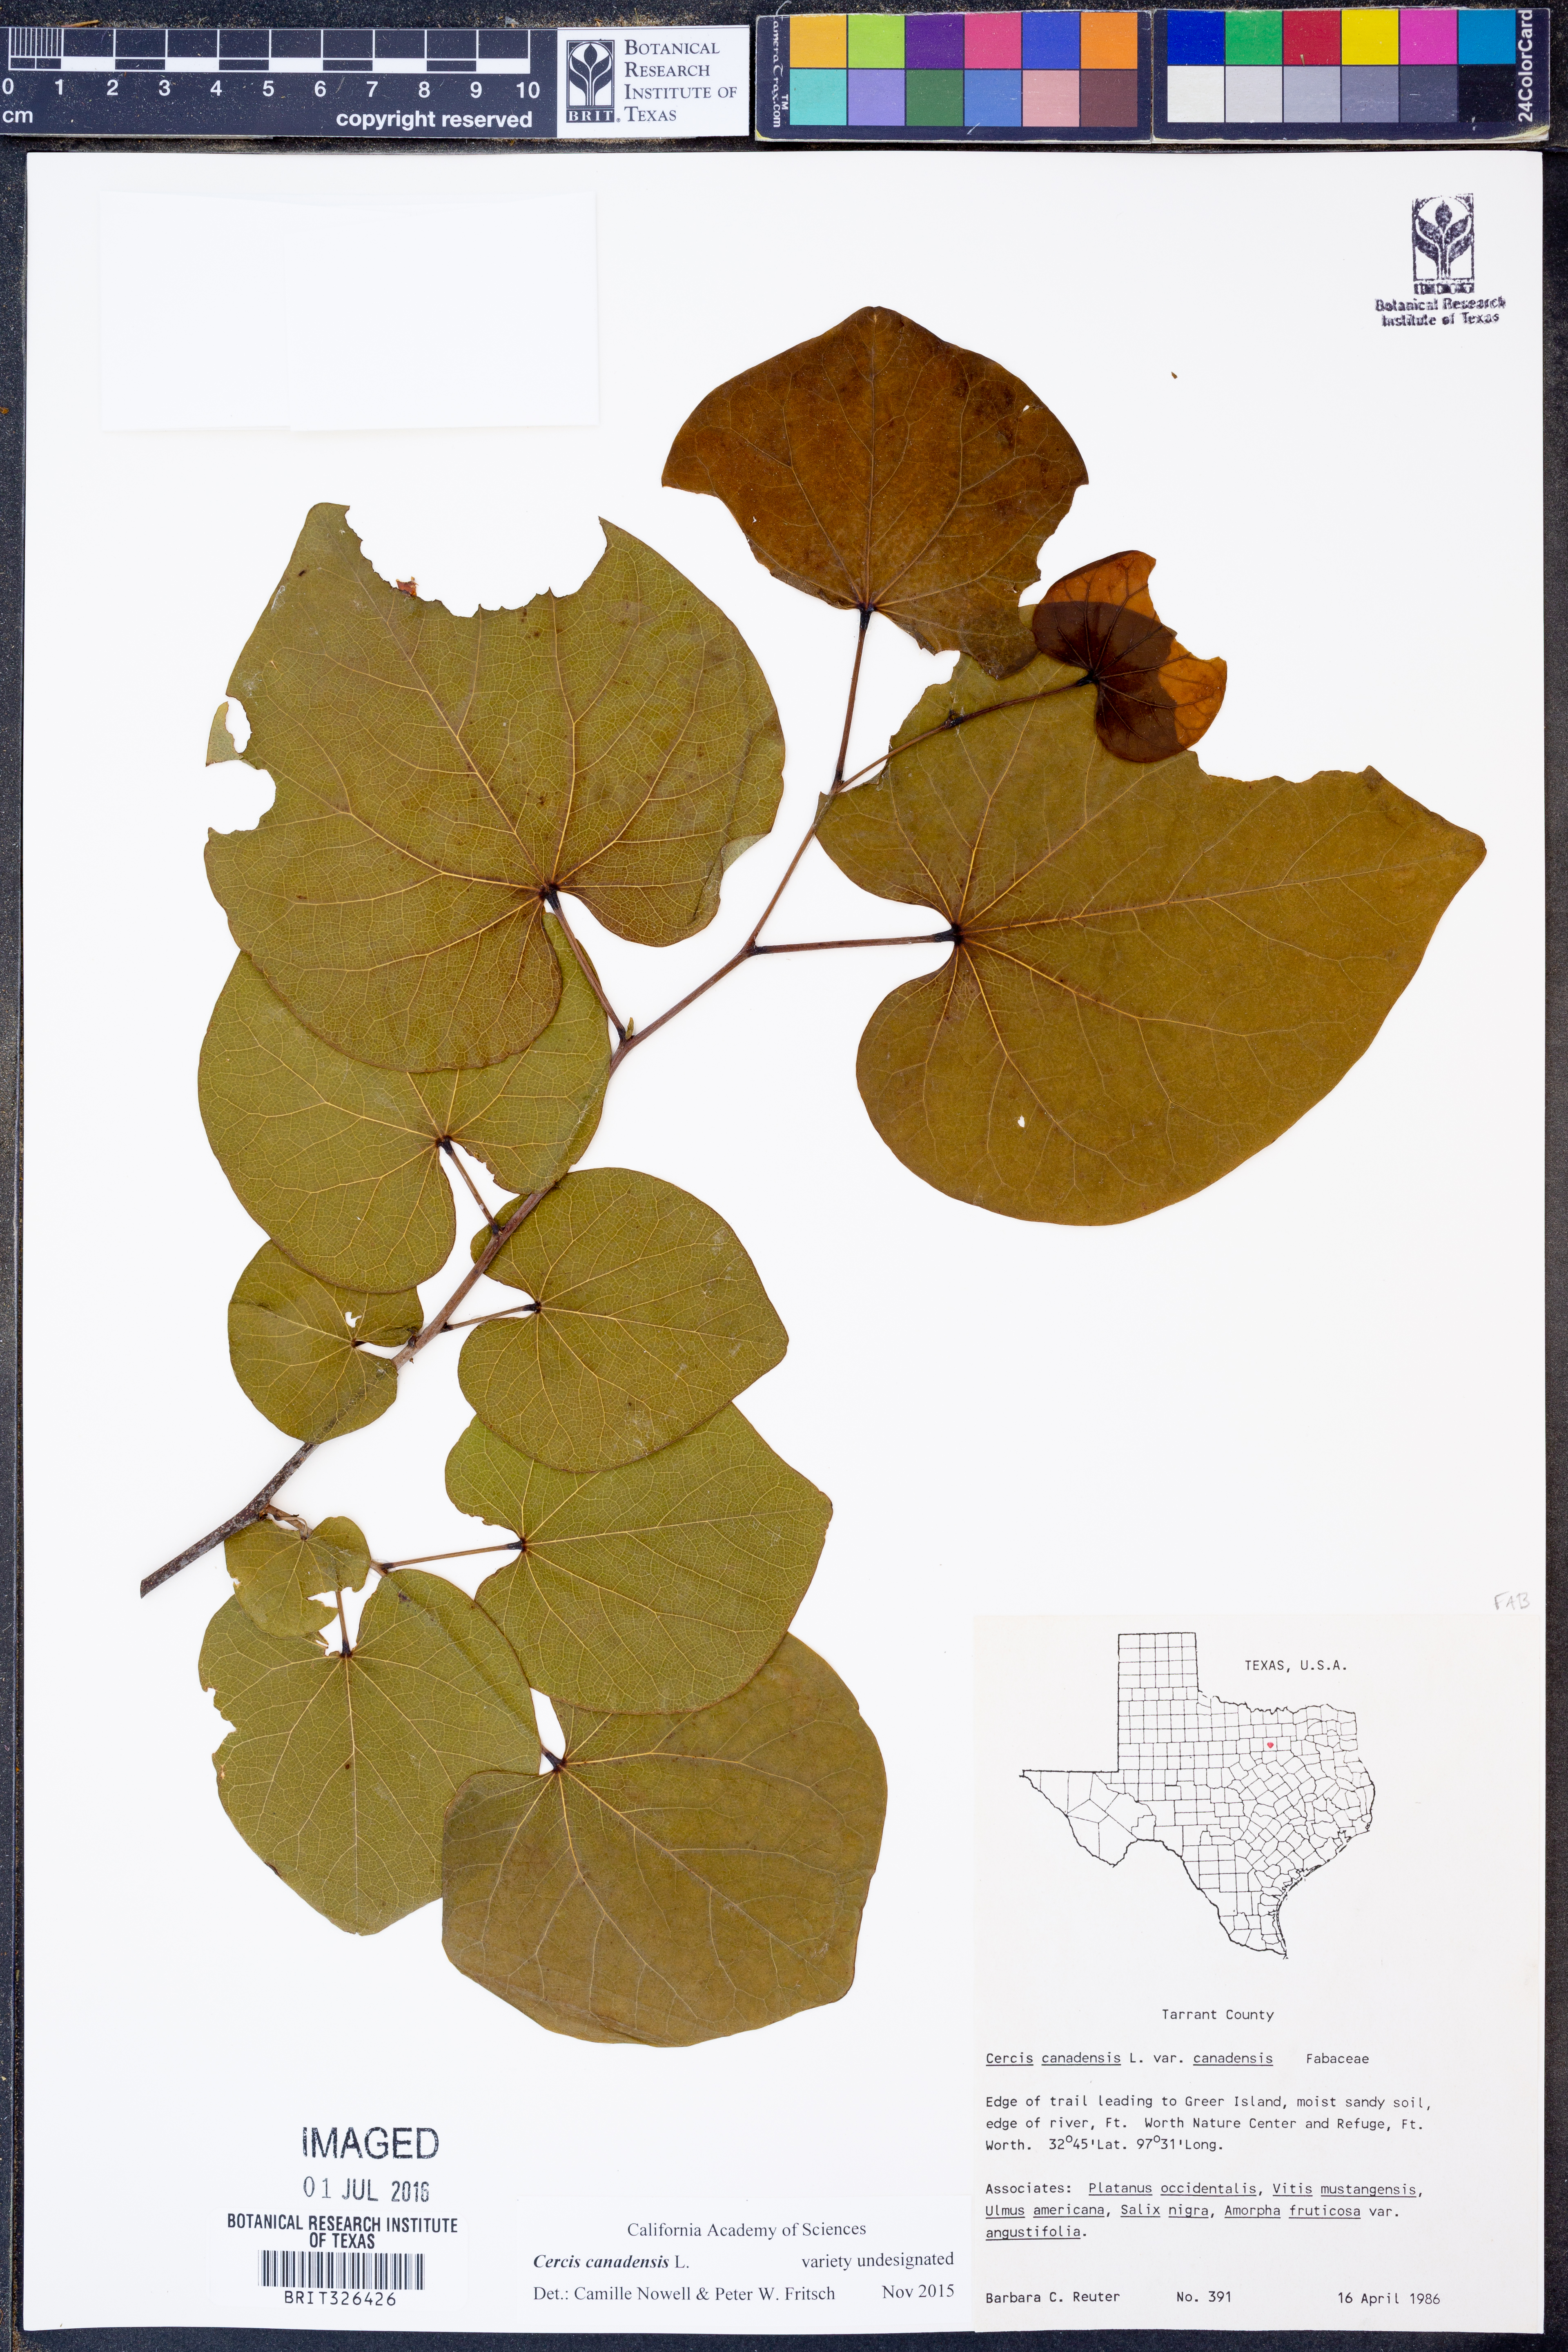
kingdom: Plantae
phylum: Tracheophyta
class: Magnoliopsida
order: Fabales
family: Fabaceae
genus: Cercis
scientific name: Cercis canadensis
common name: Eastern redbud
